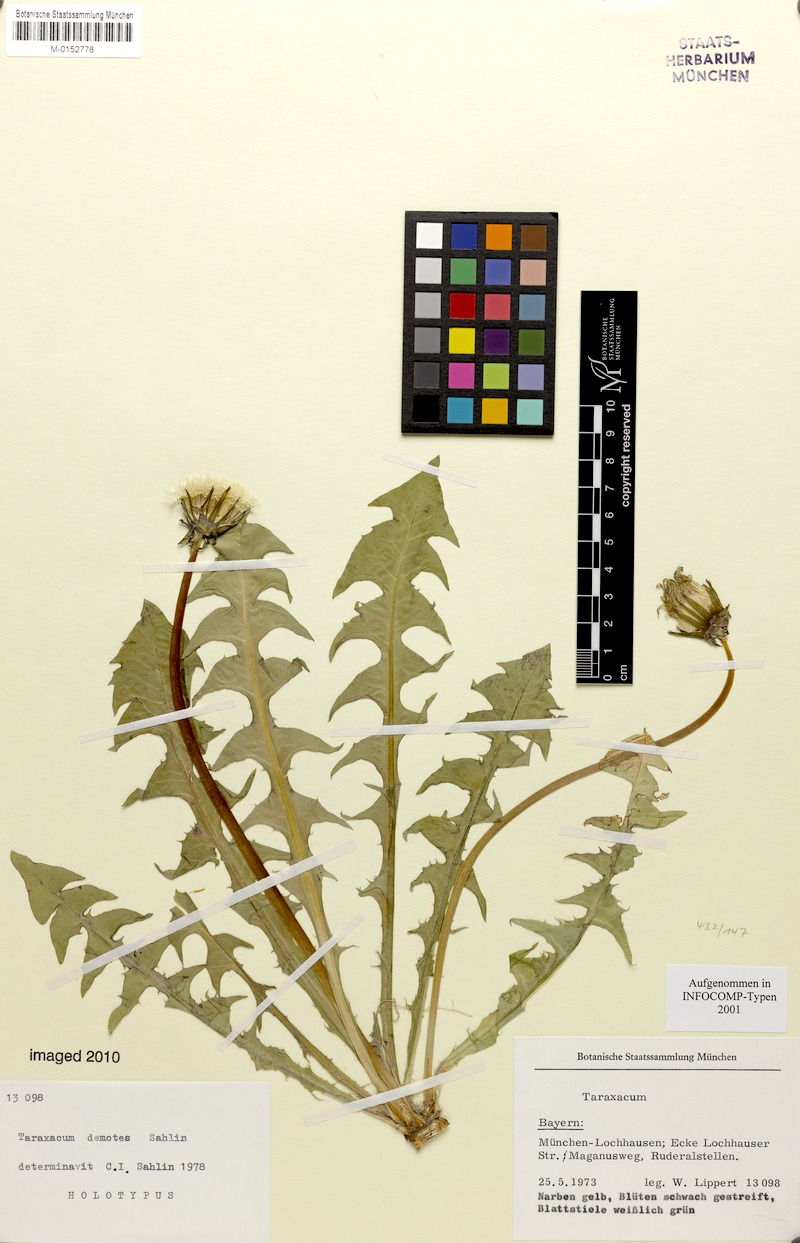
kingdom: Plantae
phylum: Tracheophyta
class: Magnoliopsida
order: Asterales
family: Asteraceae
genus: Taraxacum
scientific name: Taraxacum demotes
